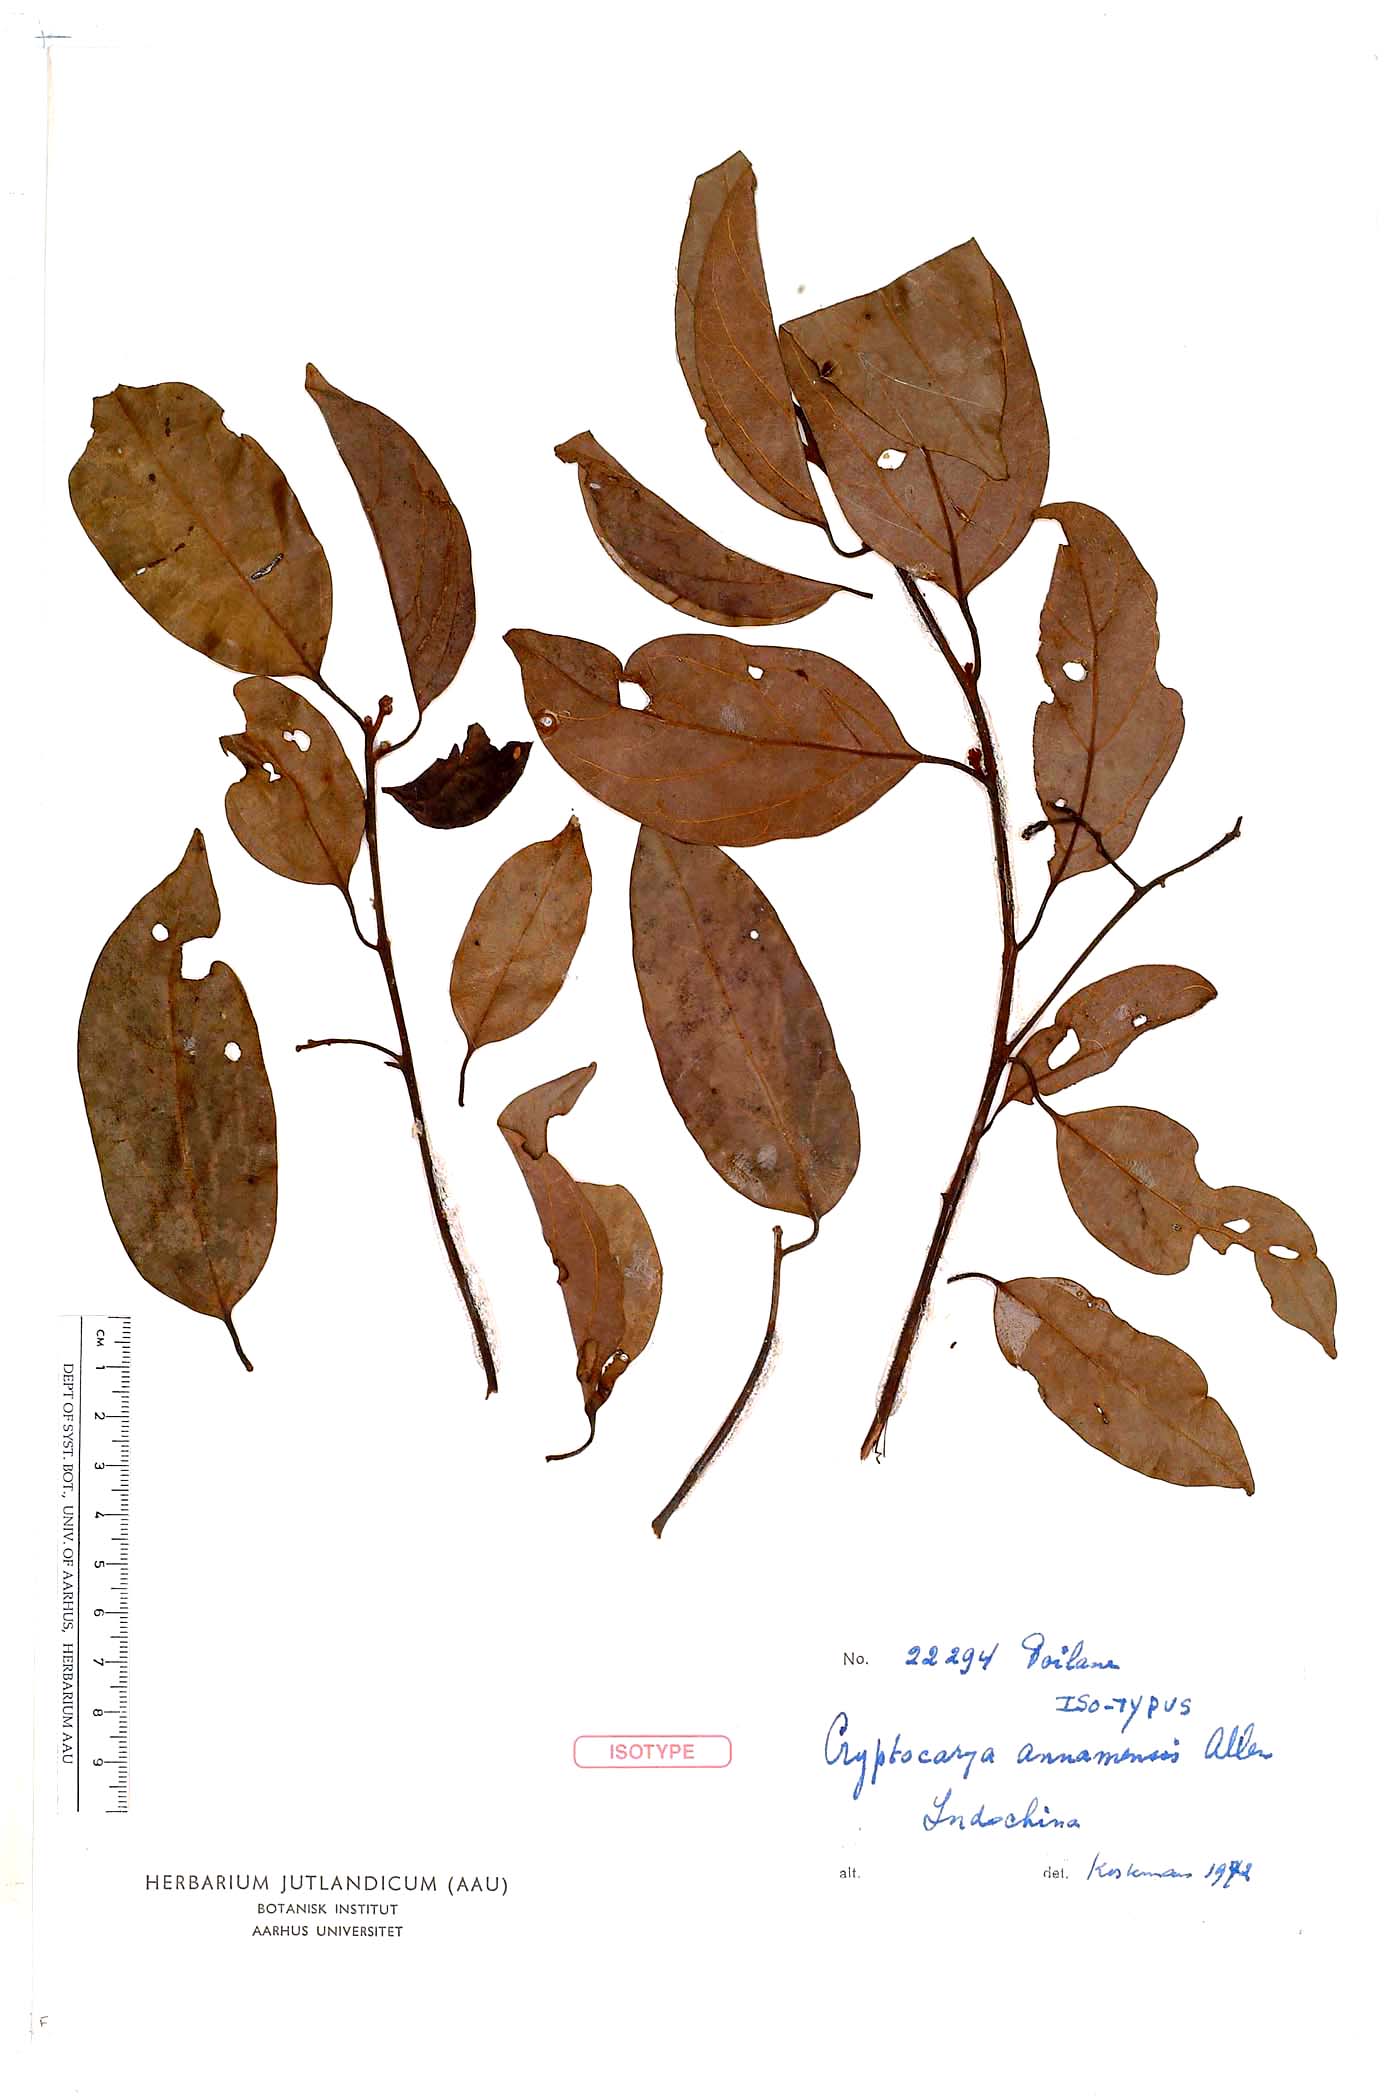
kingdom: Plantae
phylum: Tracheophyta
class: Magnoliopsida
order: Laurales
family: Lauraceae
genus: Cryptocarya
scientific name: Cryptocarya densiflora
